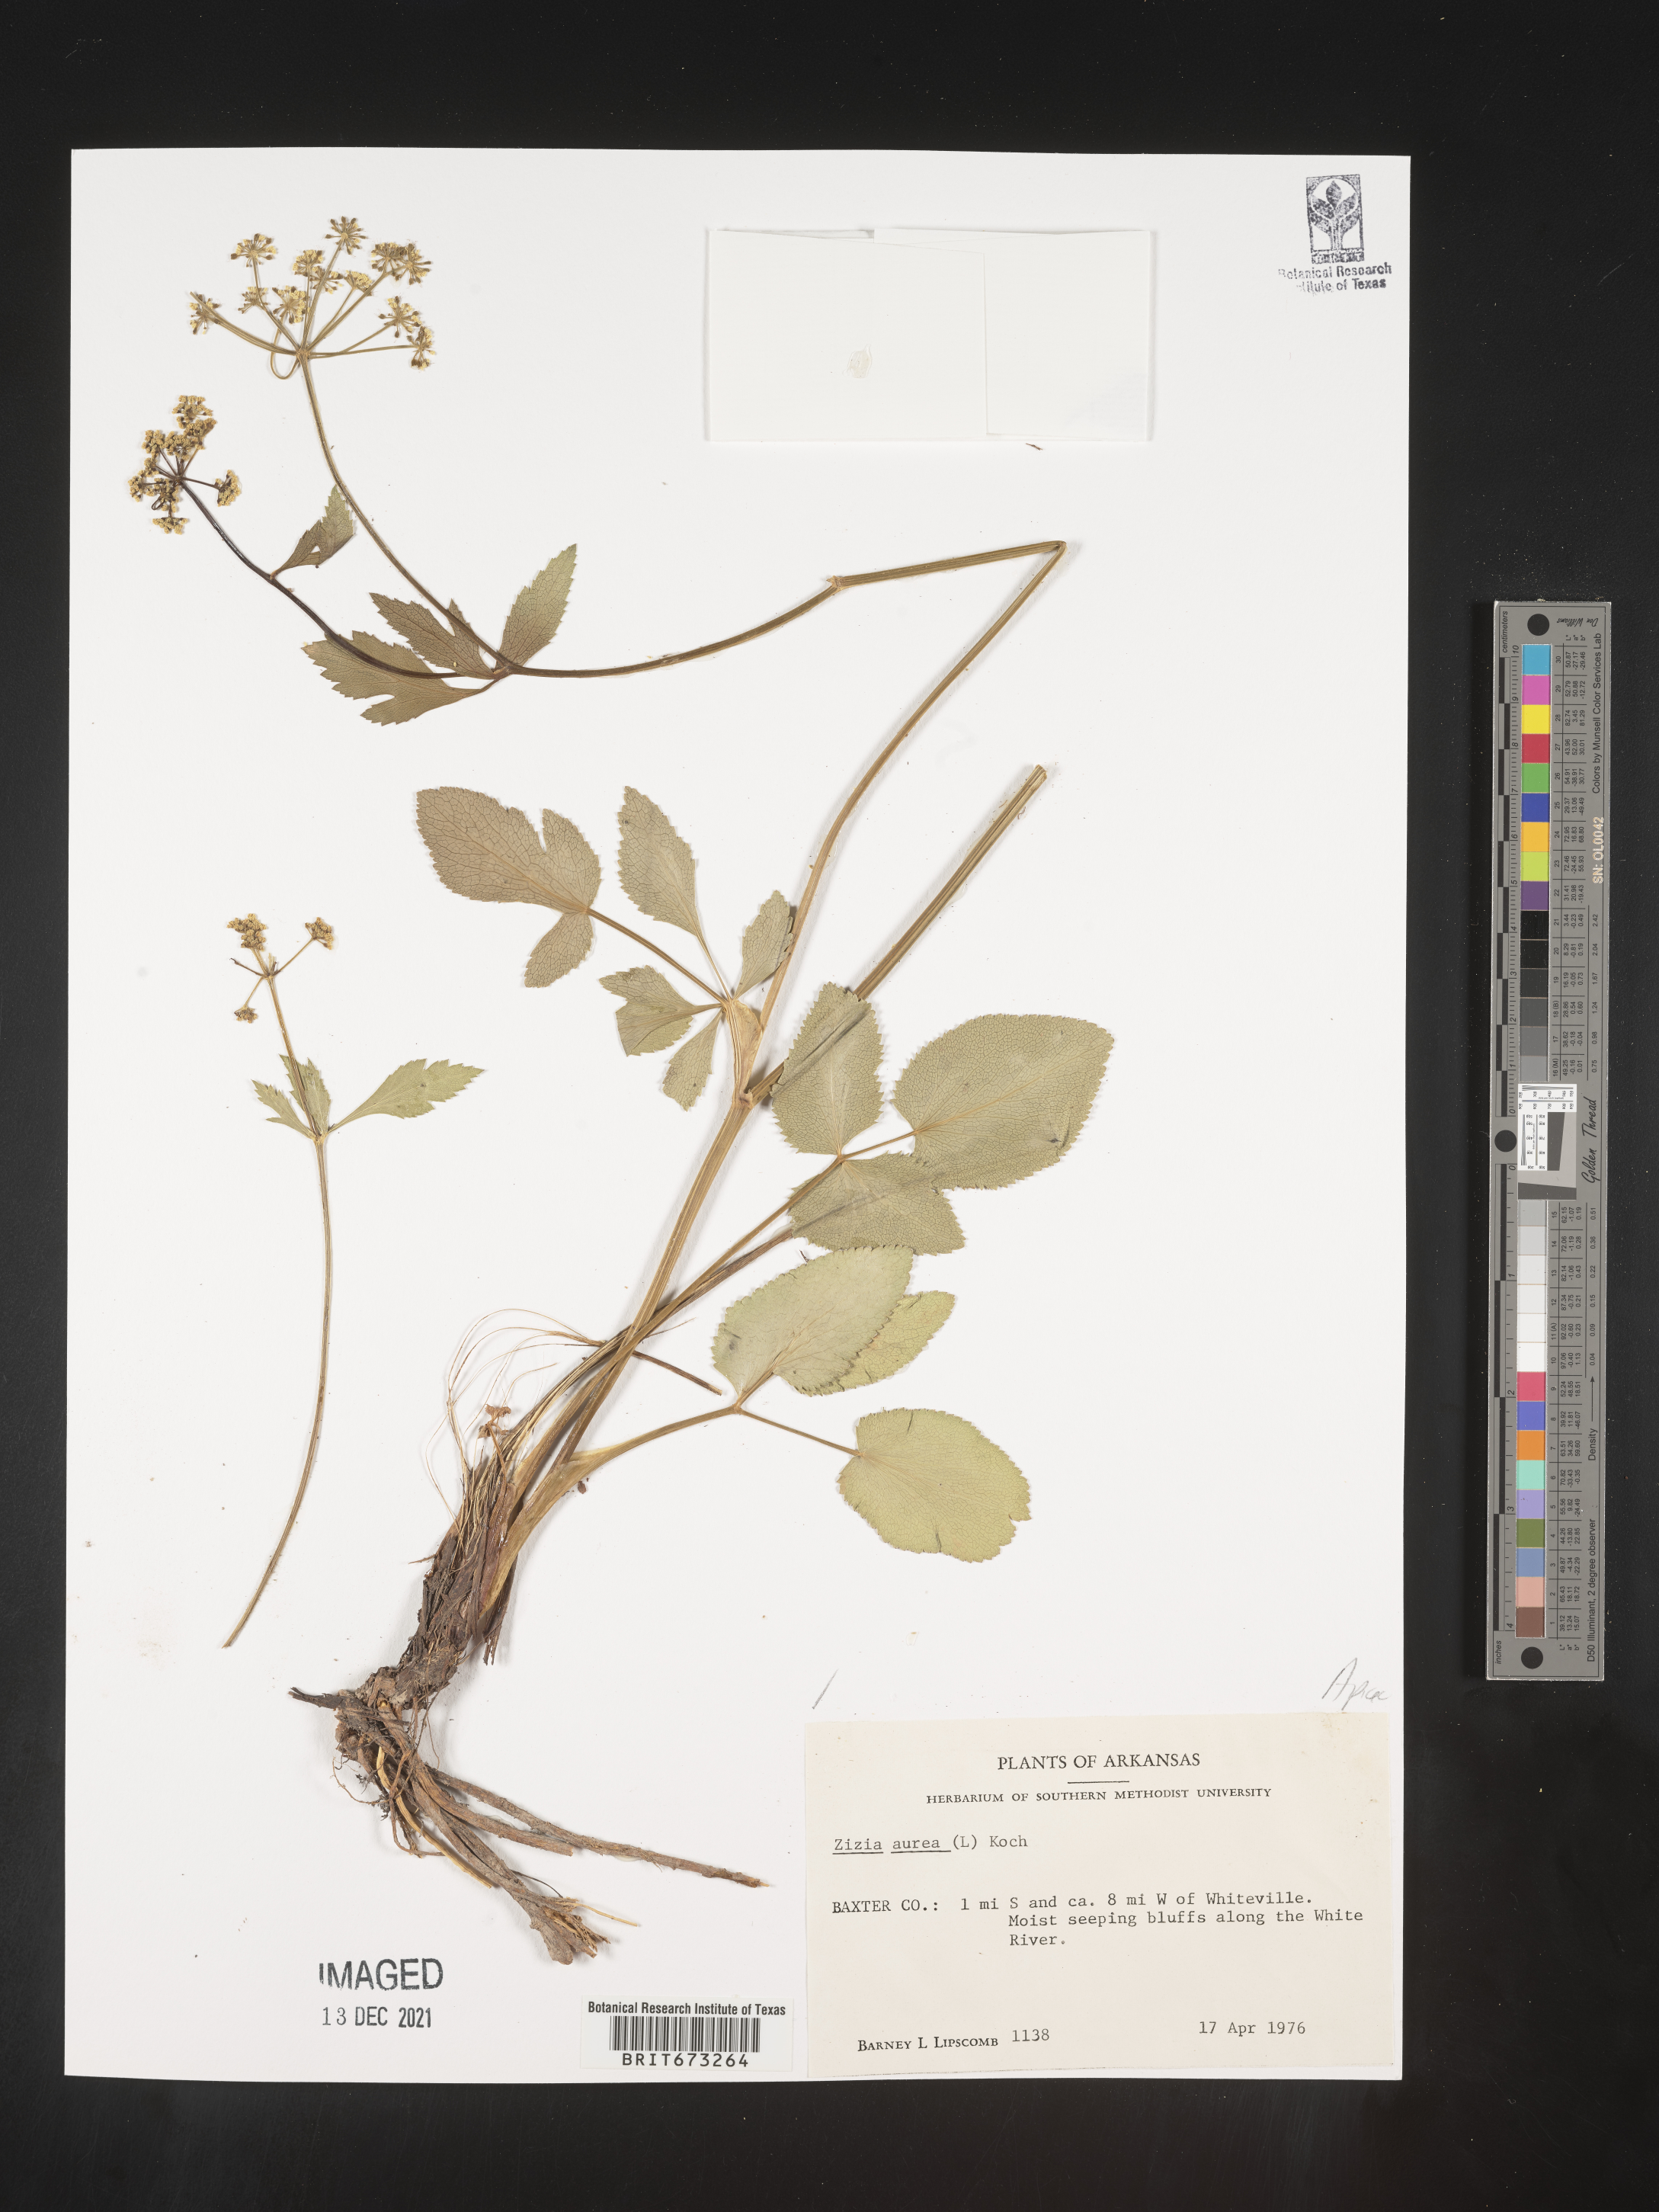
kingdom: Plantae
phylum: Tracheophyta
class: Magnoliopsida
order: Apiales
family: Apiaceae
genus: Zizia
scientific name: Zizia aurea
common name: Golden alexanders
